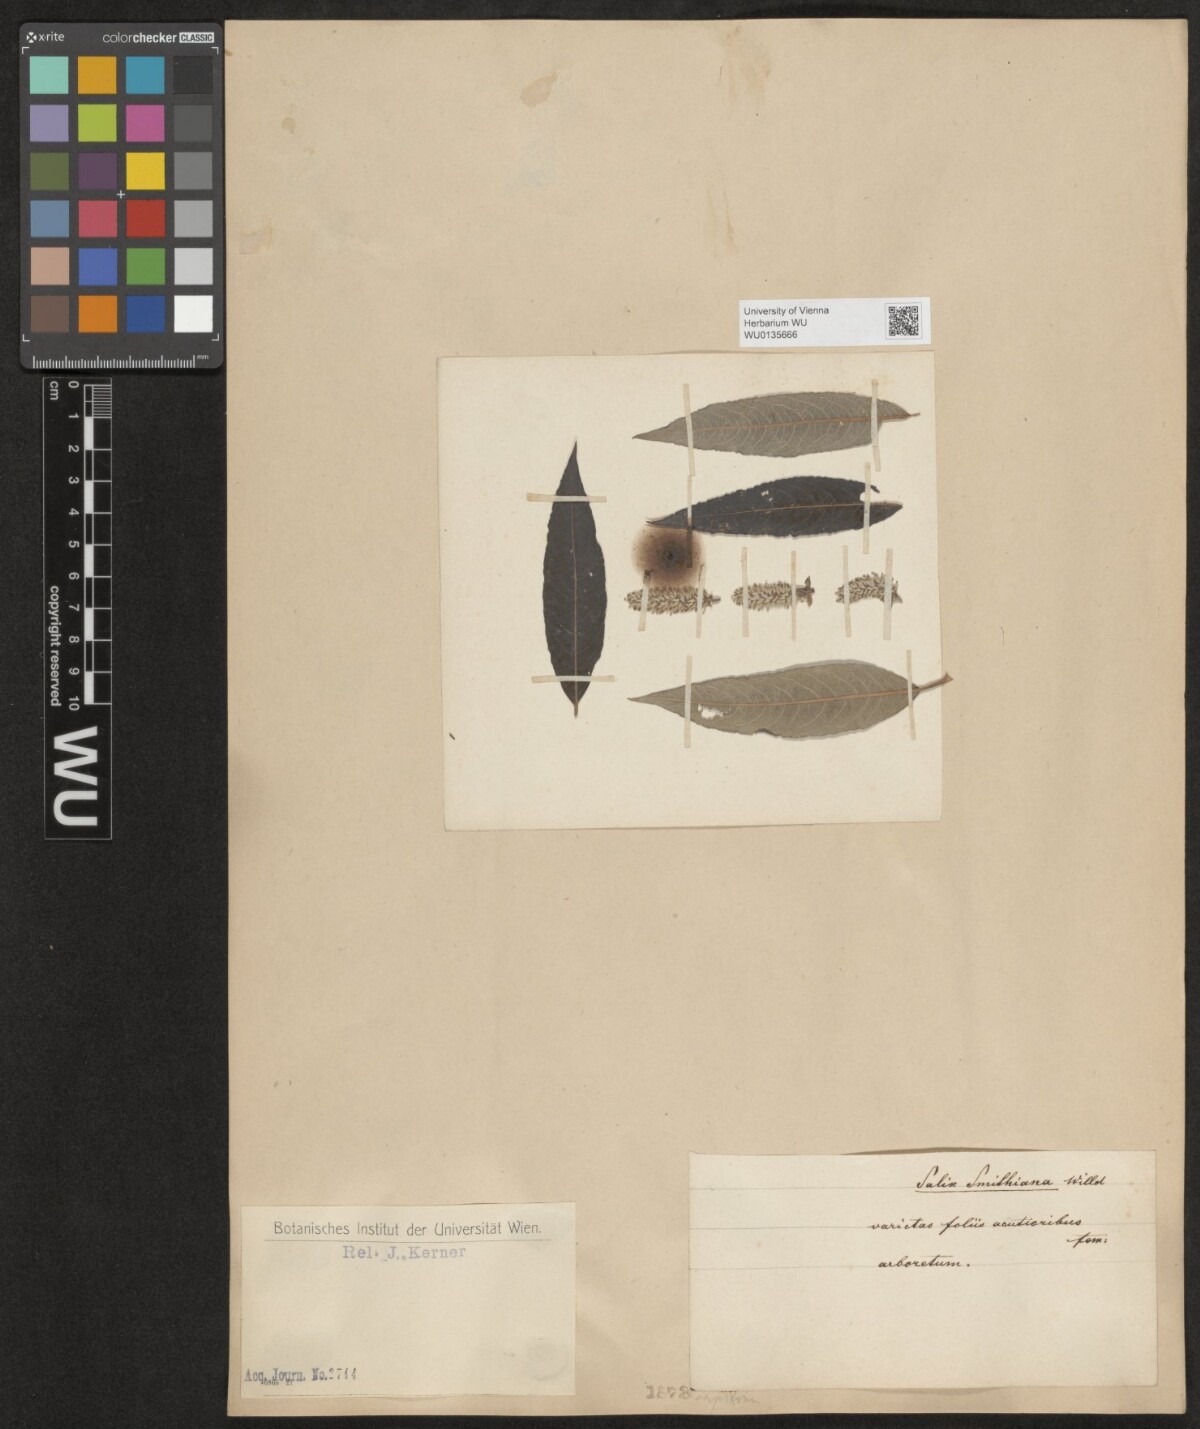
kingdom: Plantae
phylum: Tracheophyta
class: Magnoliopsida
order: Malpighiales
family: Salicaceae
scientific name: Salicaceae
